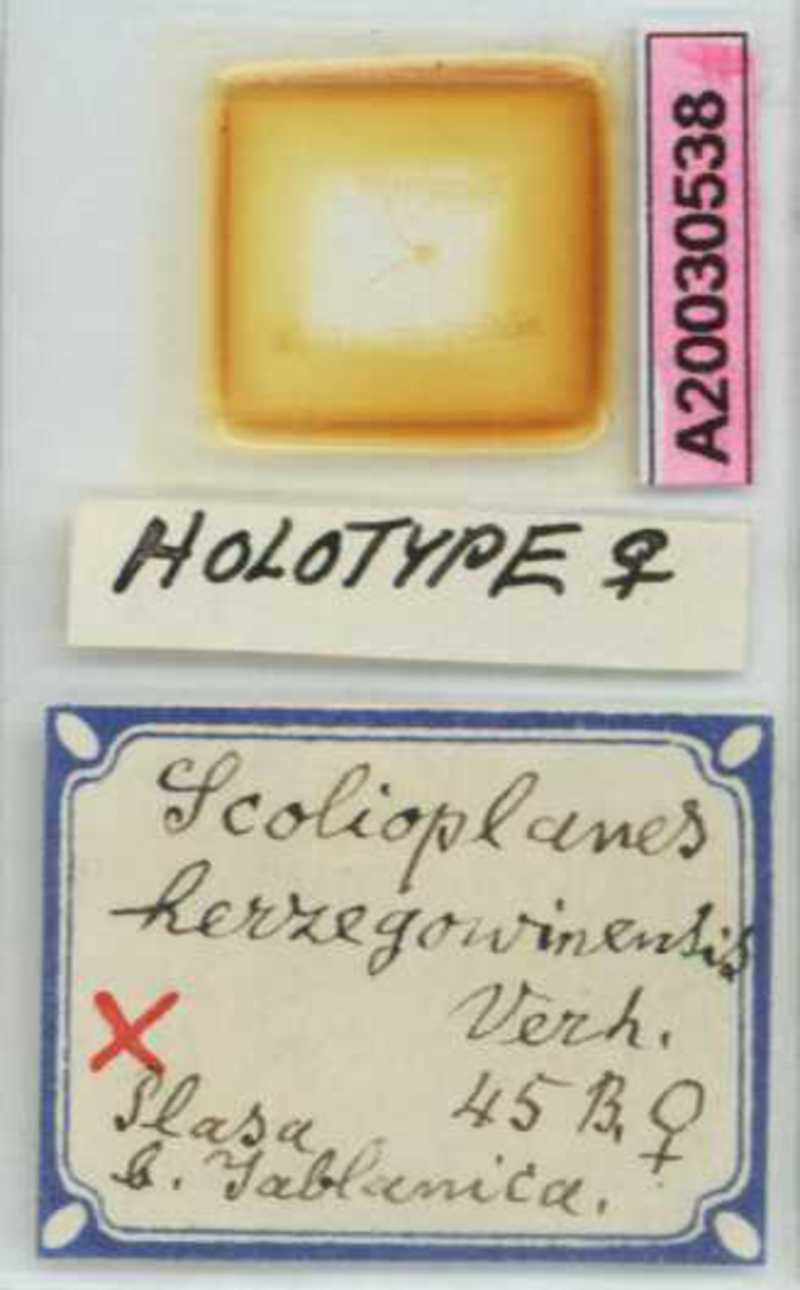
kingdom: Animalia
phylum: Arthropoda
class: Chilopoda
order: Geophilomorpha
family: Linotaeniidae
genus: Strigamia
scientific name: Strigamia herzegowinensis
